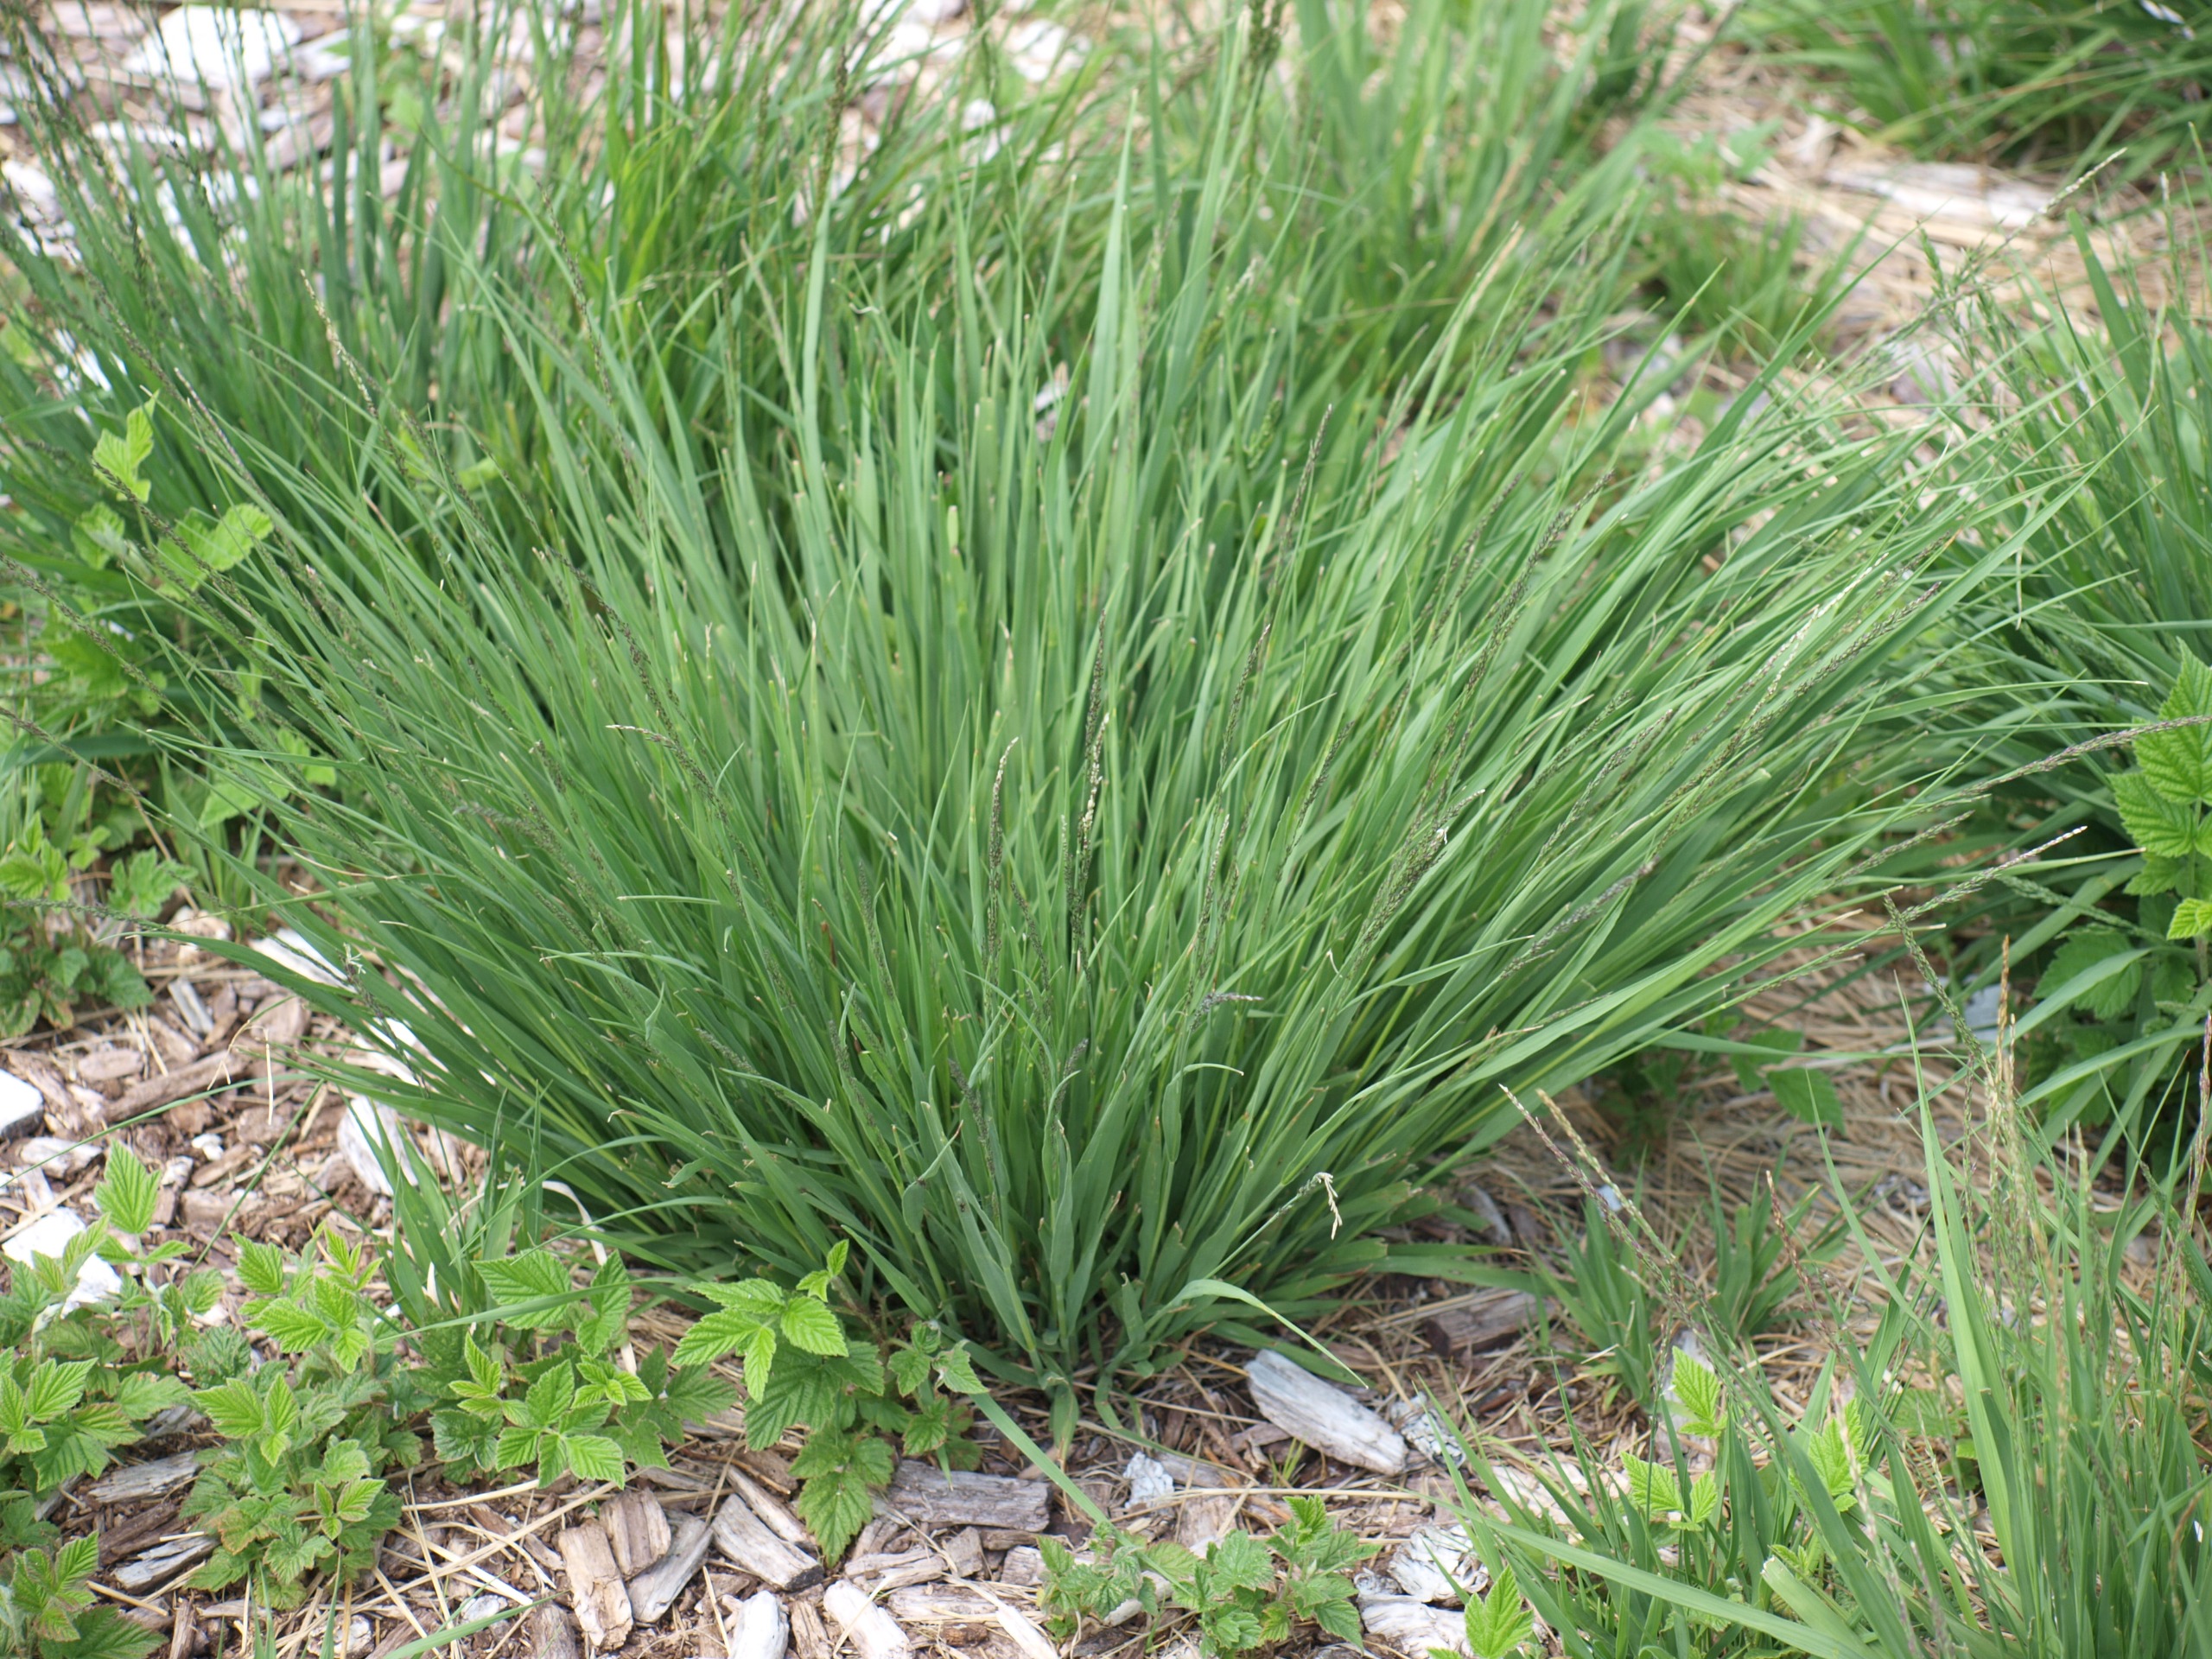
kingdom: Plantae
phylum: Tracheophyta
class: Liliopsida
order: Poales
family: Poaceae
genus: Molinia
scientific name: Molinia caerulea
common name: Blåtop
